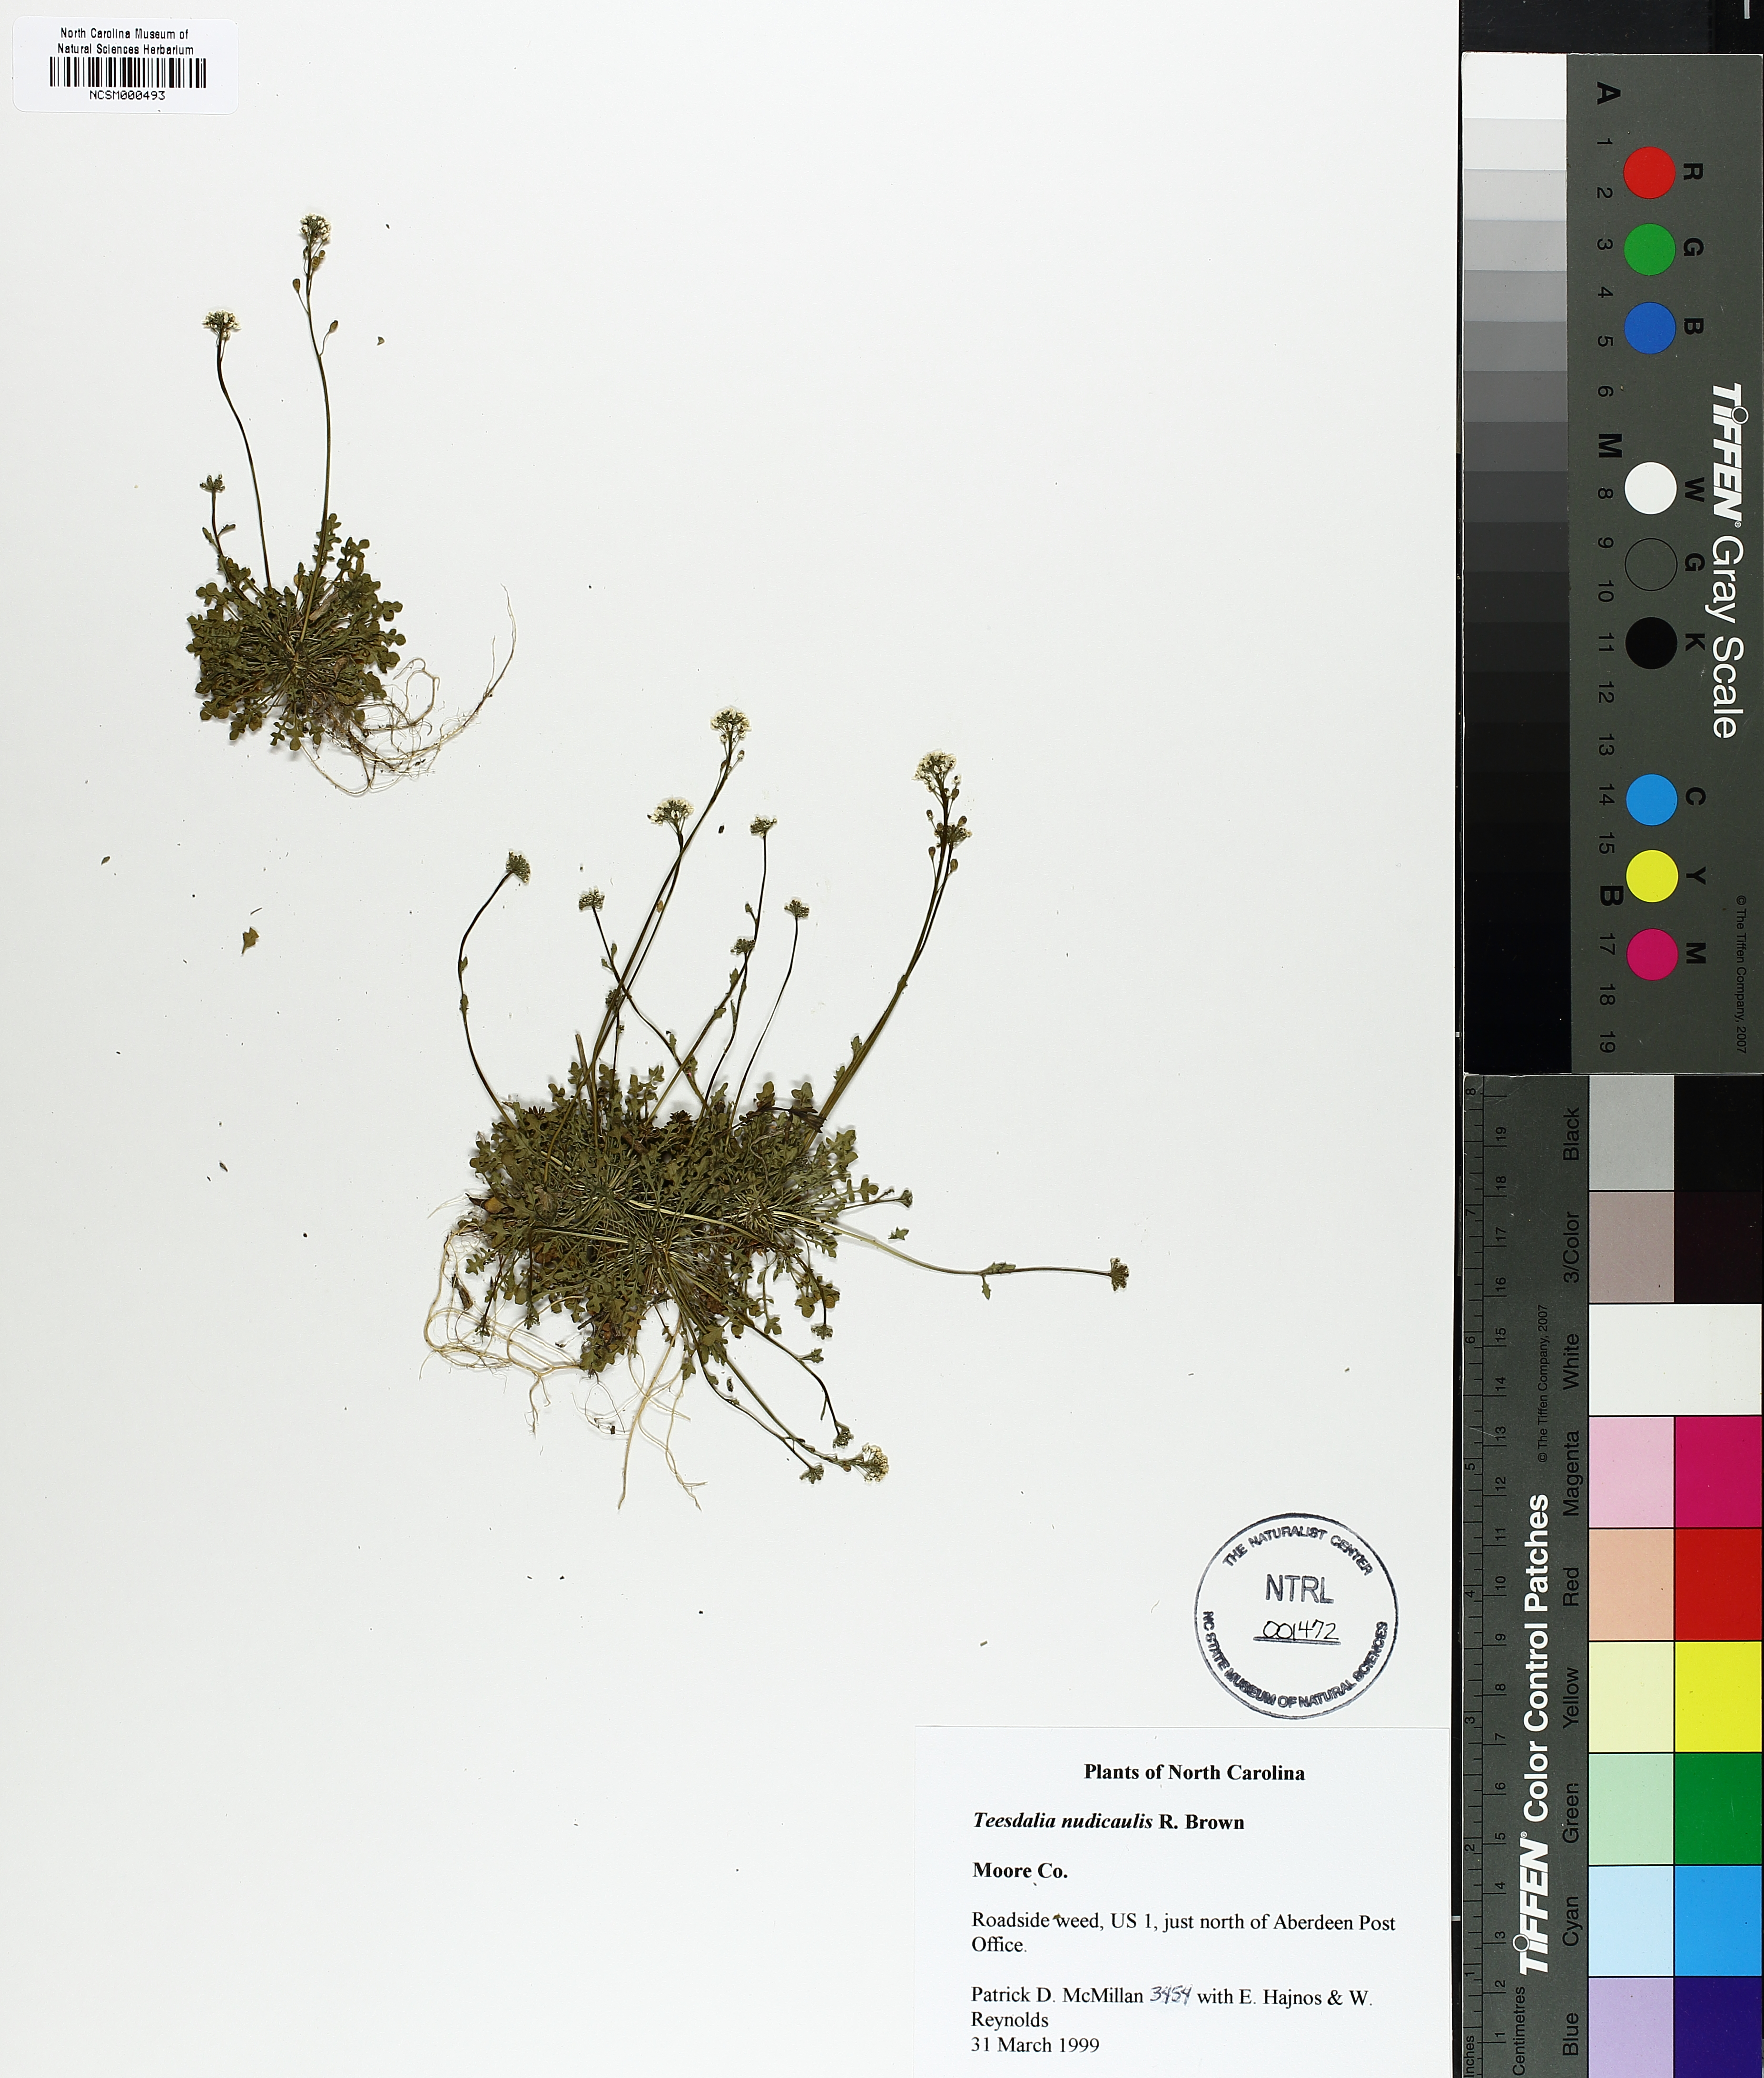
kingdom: Plantae
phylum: Tracheophyta
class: Magnoliopsida
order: Brassicales
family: Brassicaceae
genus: Teesdalia
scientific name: Teesdalia nudicaulis
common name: Shepherd's cress
